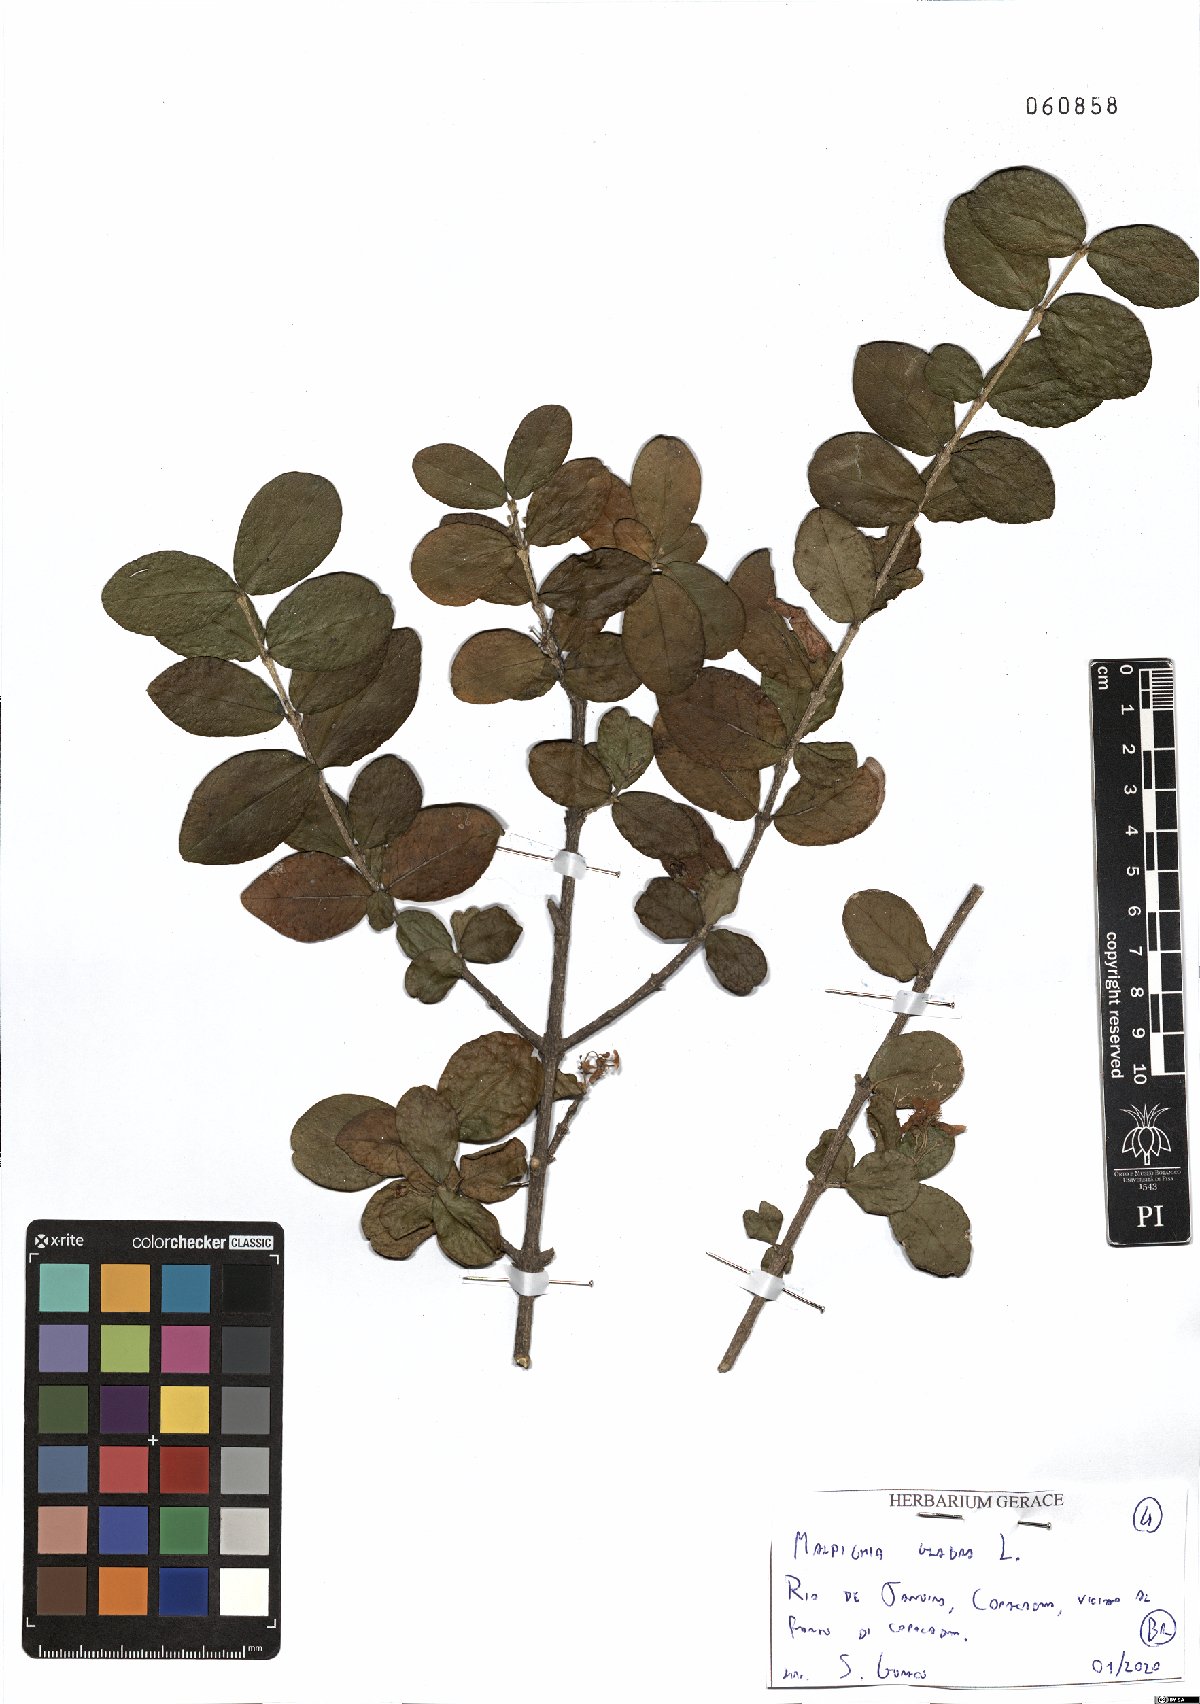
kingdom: Plantae
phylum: Tracheophyta
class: Magnoliopsida
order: Malpighiales
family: Malpighiaceae
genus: Malpighia
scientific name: Malpighia glabra
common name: Barbados cherry
